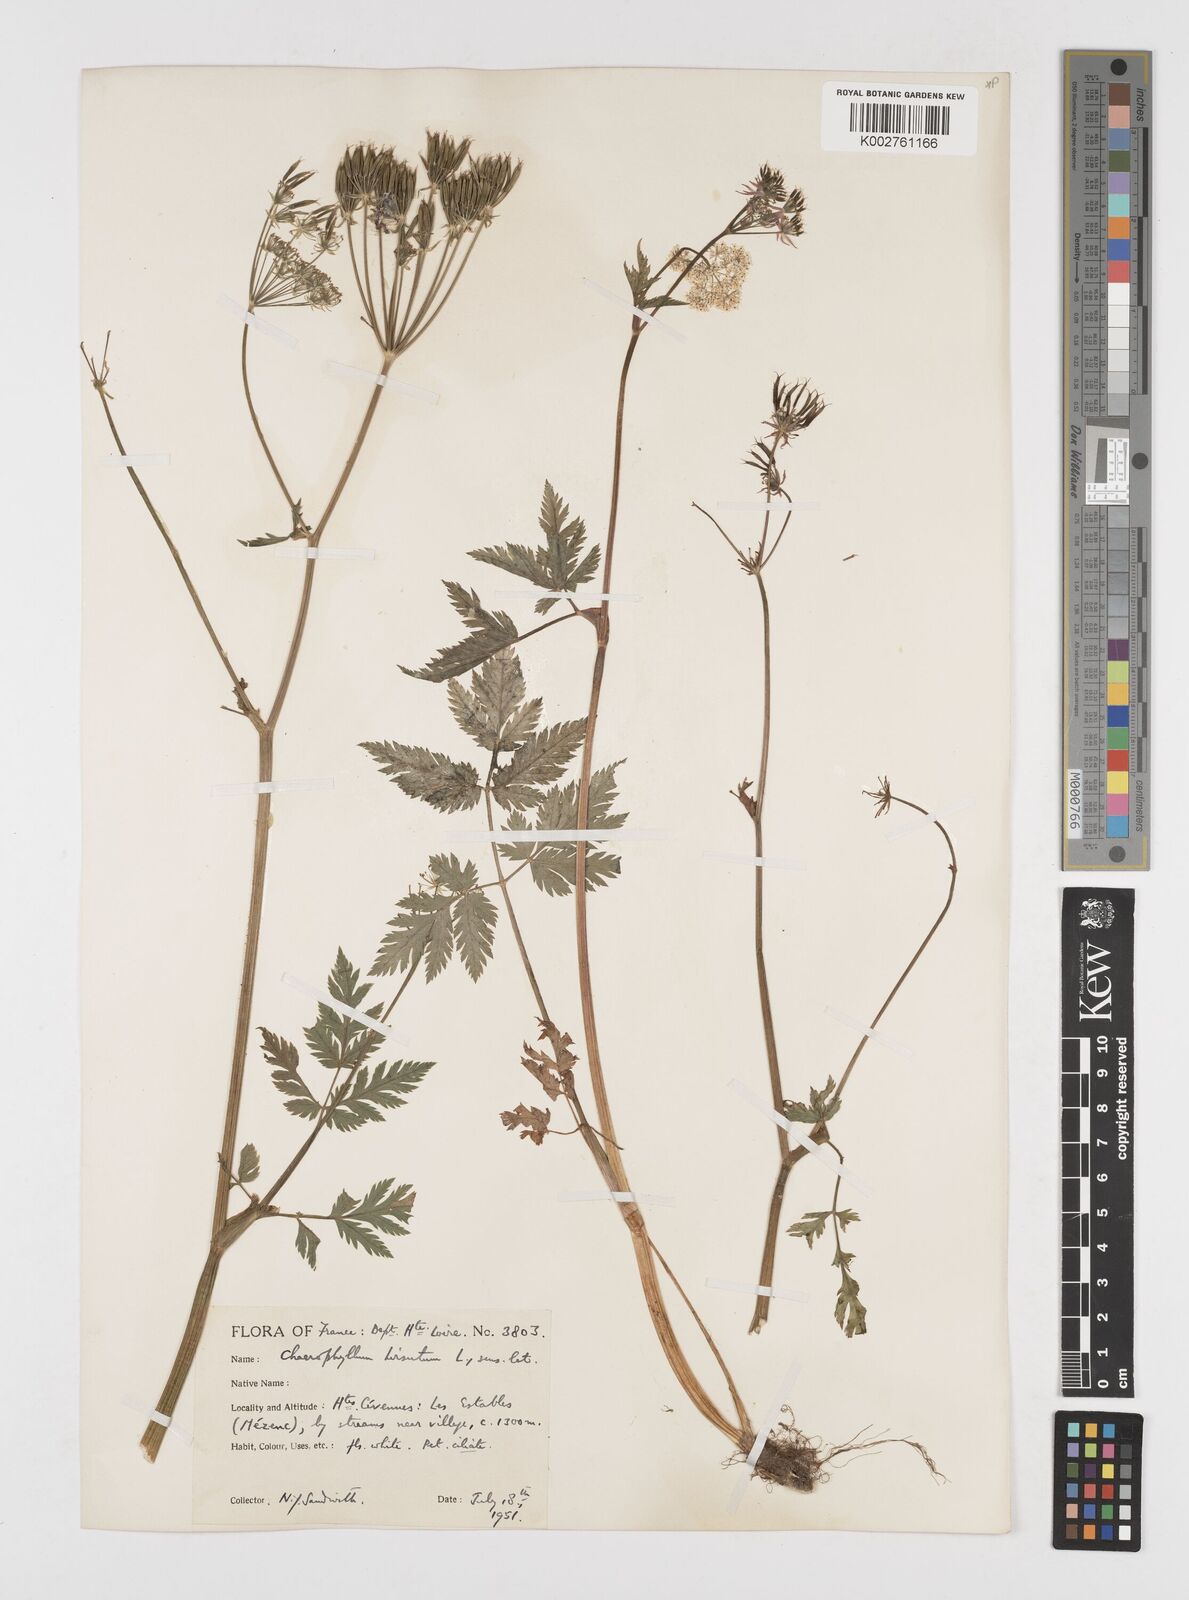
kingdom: Plantae
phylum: Tracheophyta
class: Magnoliopsida
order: Apiales
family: Apiaceae
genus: Chaerophyllum
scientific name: Chaerophyllum hirsutum
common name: Hairy chervil
